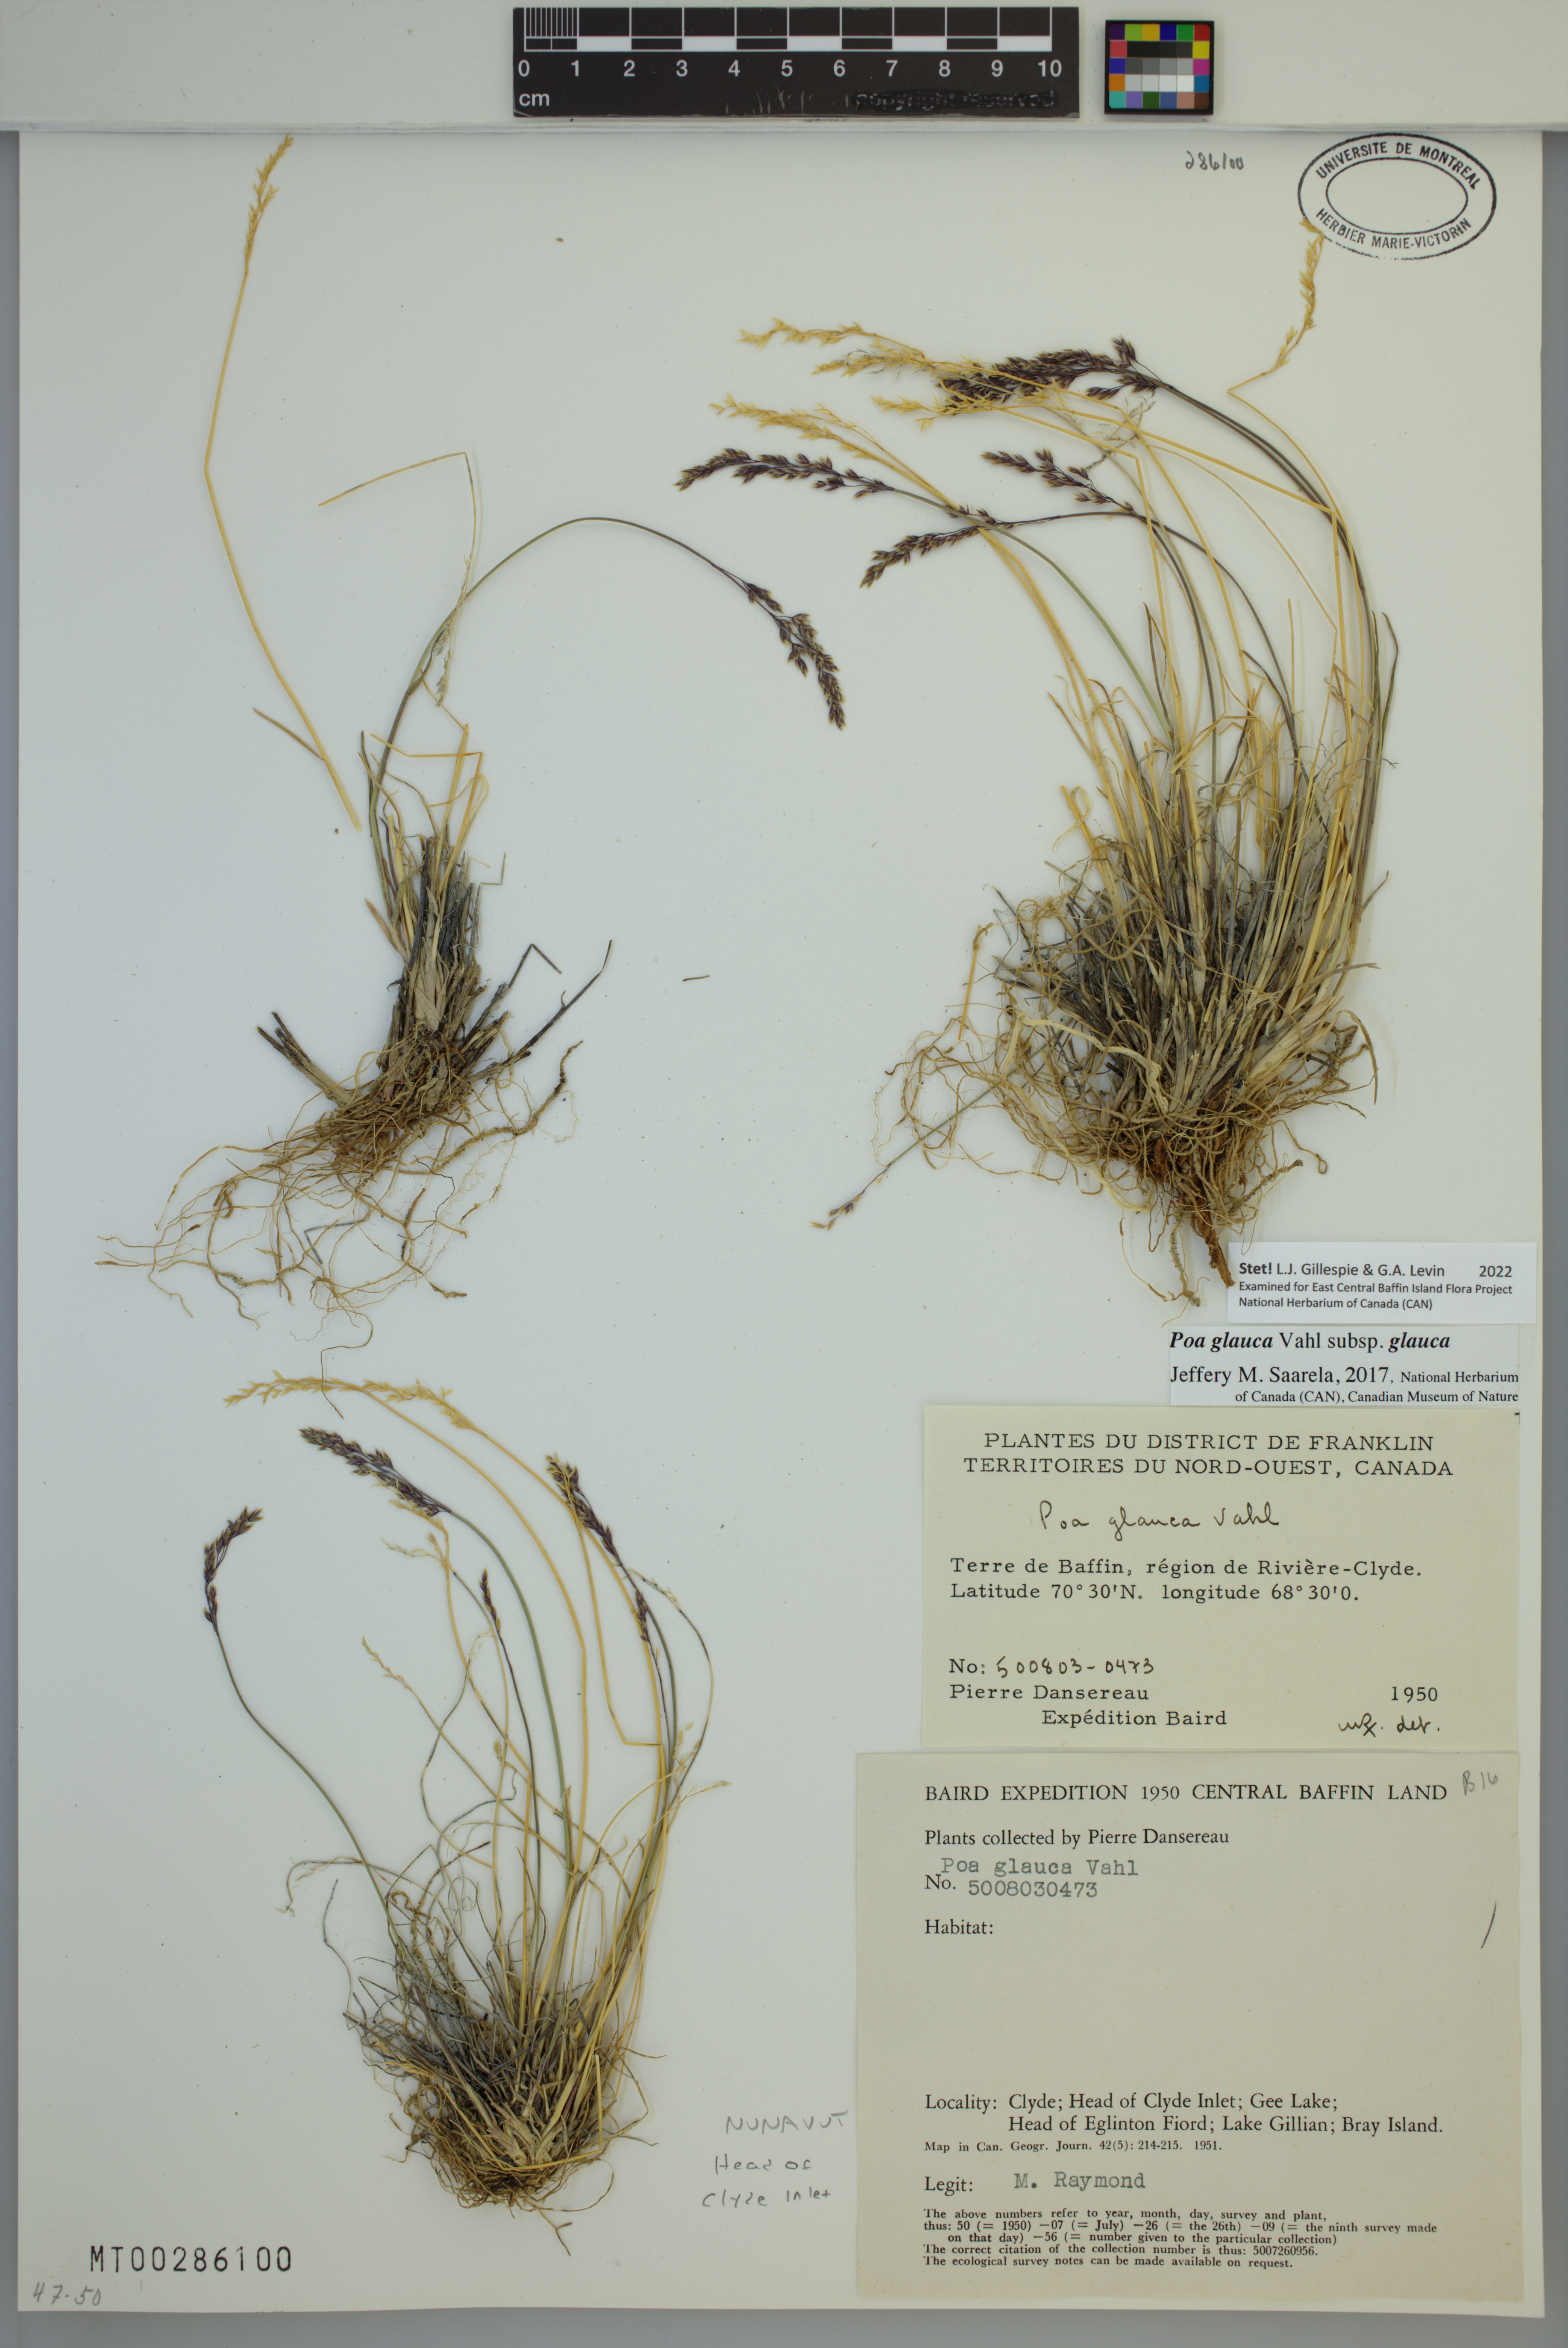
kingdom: Plantae
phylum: Tracheophyta
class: Liliopsida
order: Poales
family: Poaceae
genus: Poa
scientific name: Poa glauca
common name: Glaucous bluegrass
